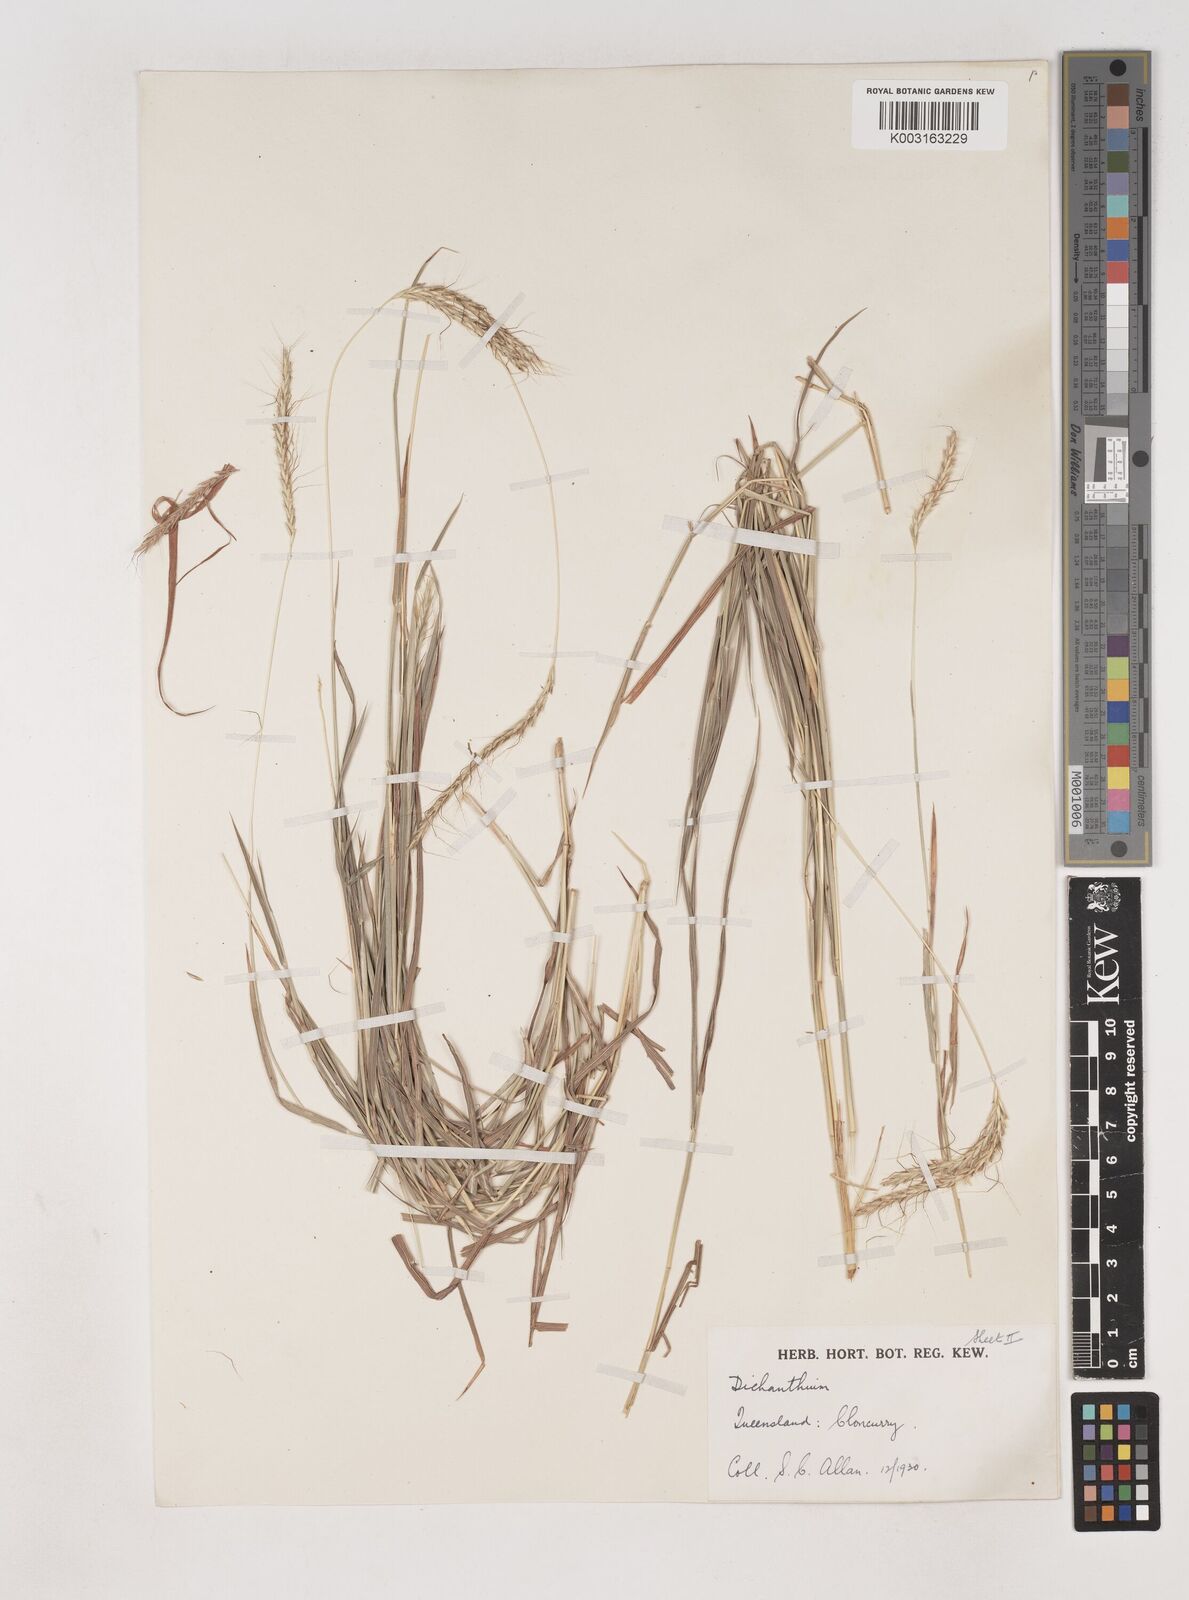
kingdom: Plantae
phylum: Tracheophyta
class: Liliopsida
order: Poales
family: Poaceae
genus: Dichanthium
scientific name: Dichanthium fecundum
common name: Bundle-bundle
